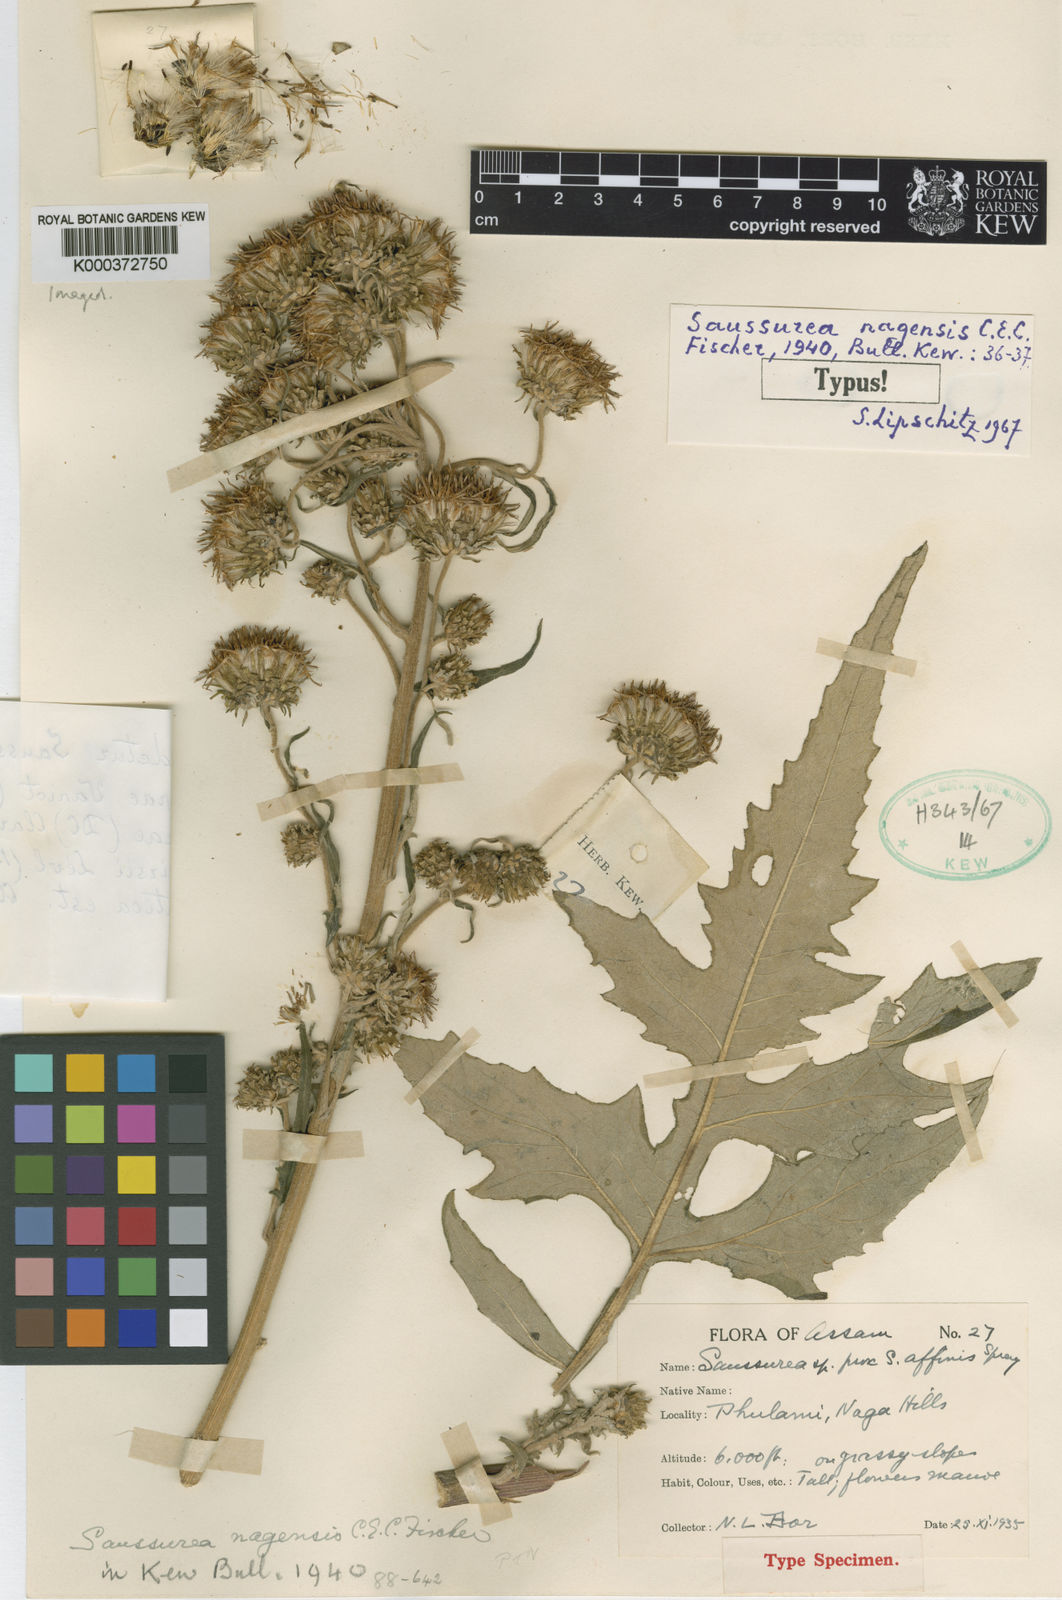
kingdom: Plantae
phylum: Tracheophyta
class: Magnoliopsida
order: Asterales
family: Asteraceae
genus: Saussurea
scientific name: Saussurea nagensis
